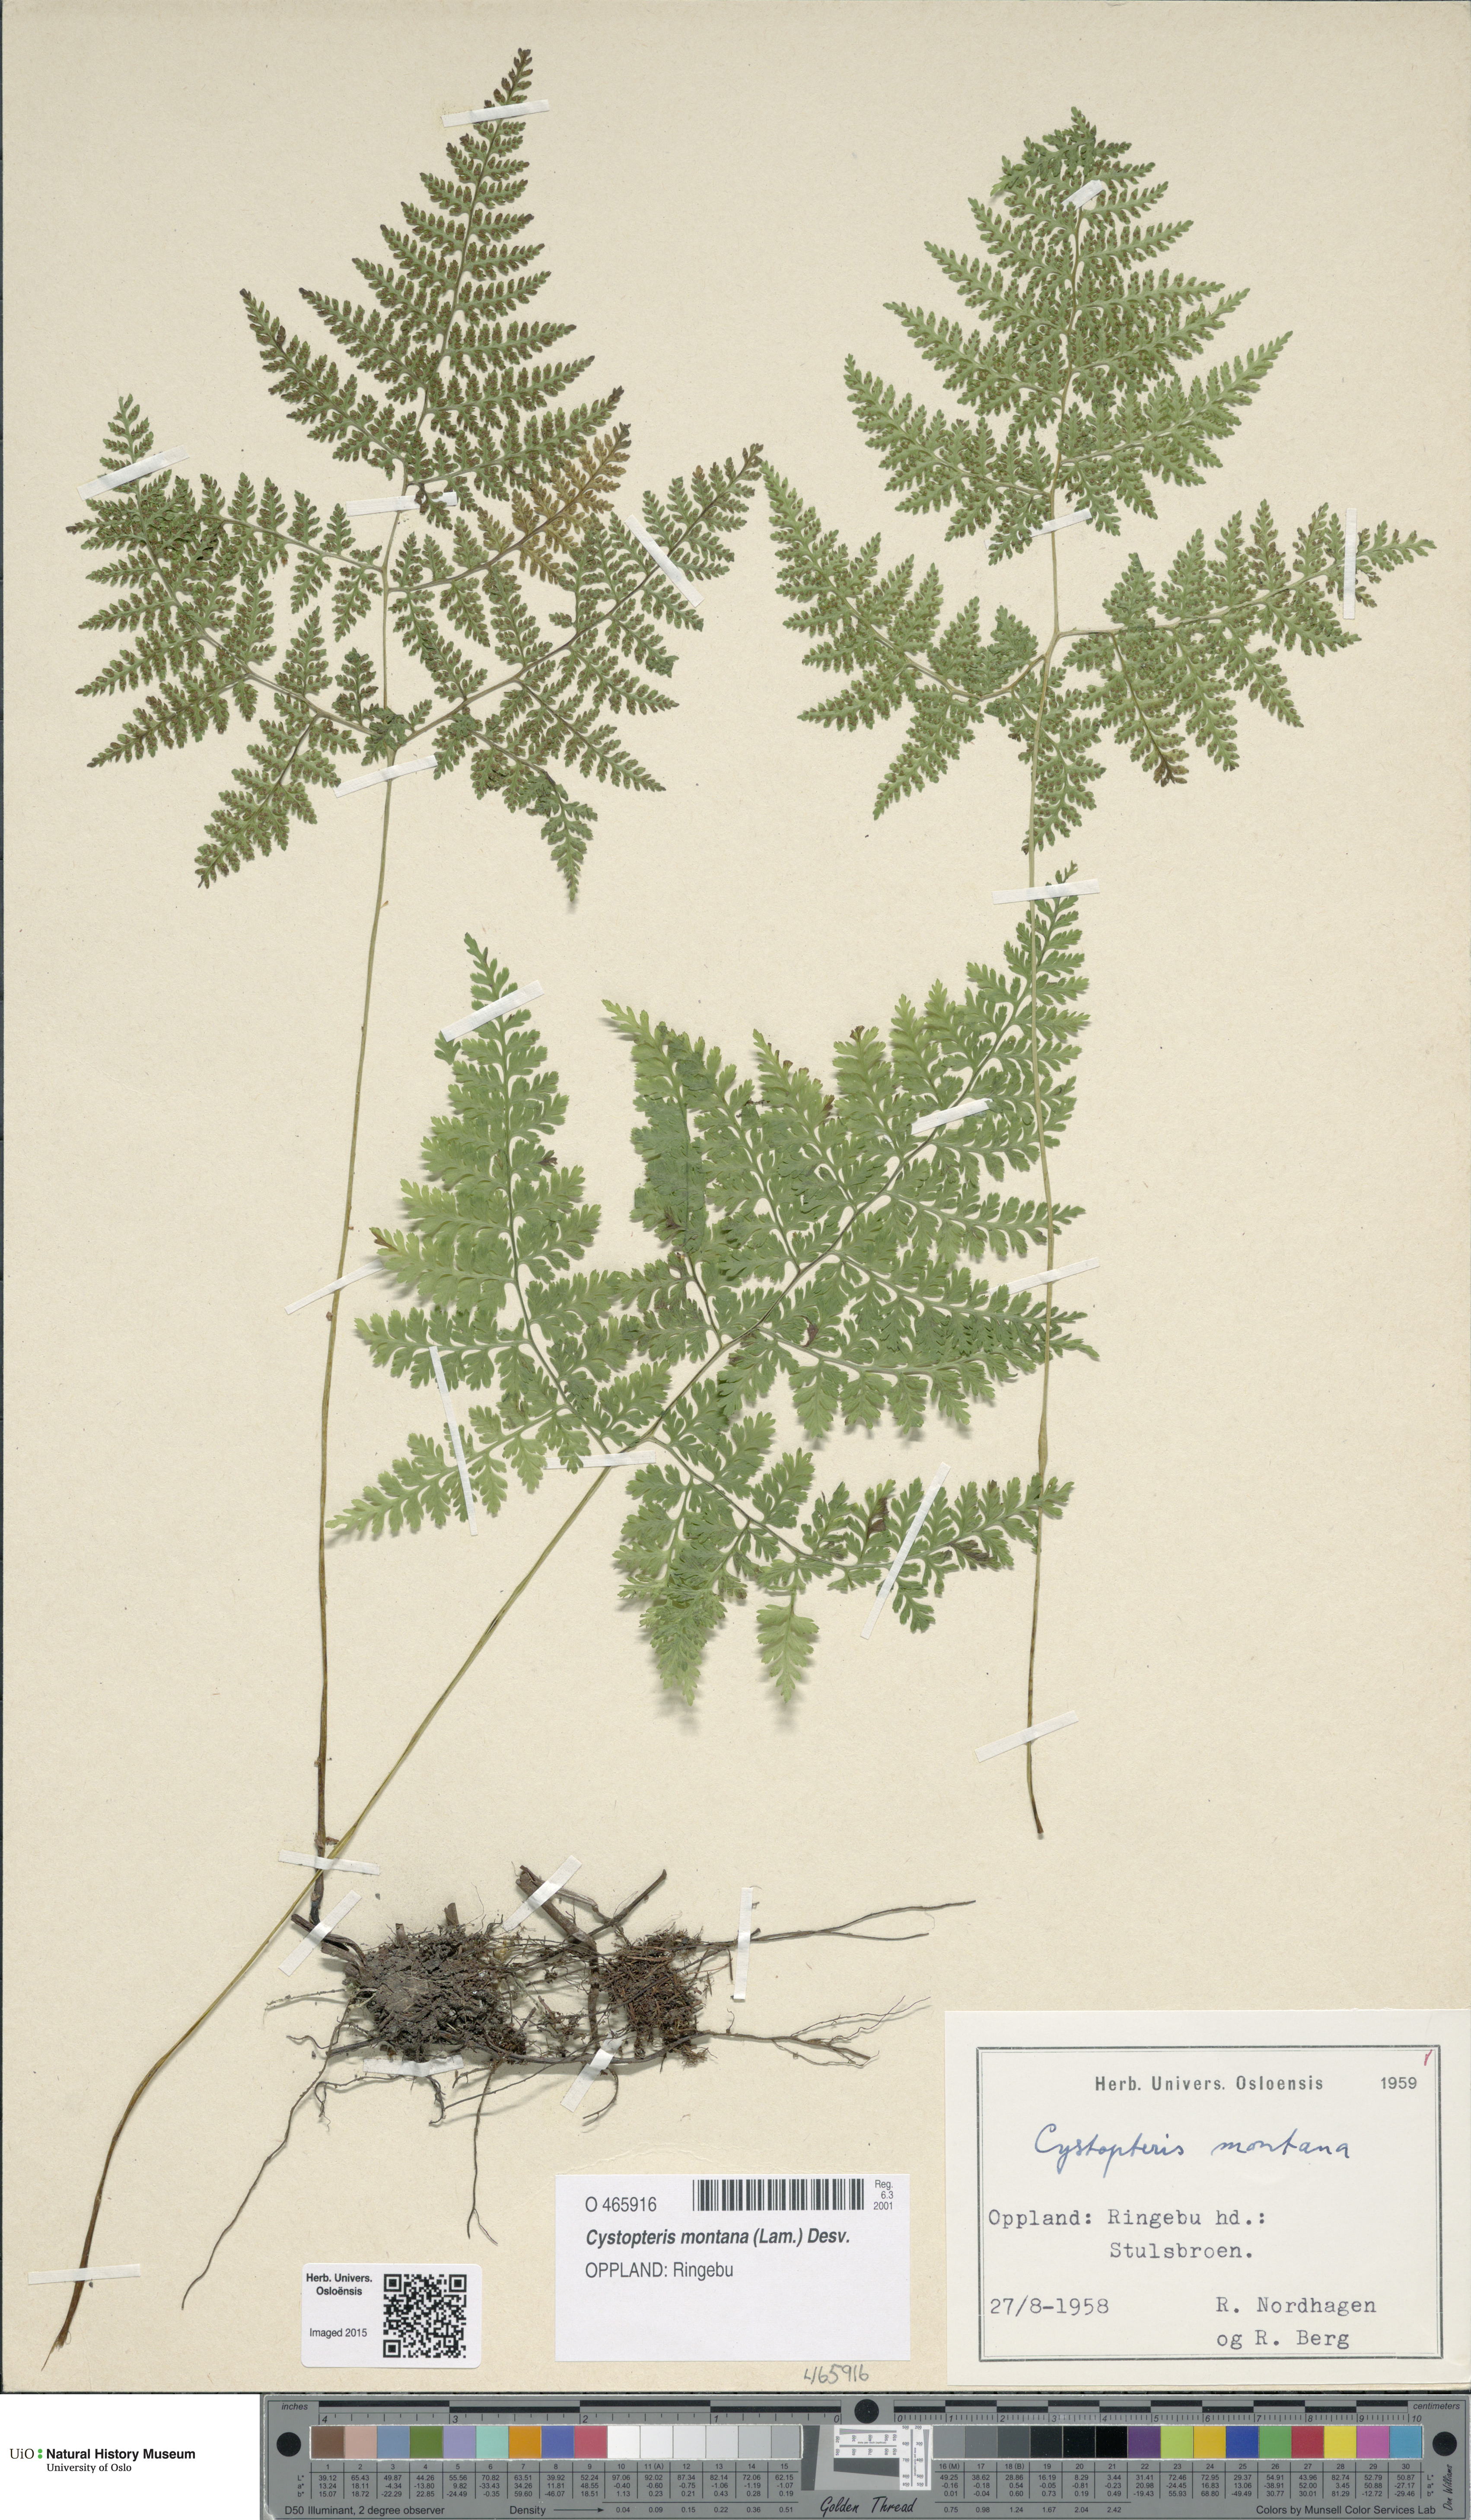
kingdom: Plantae
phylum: Tracheophyta
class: Polypodiopsida
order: Polypodiales
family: Cystopteridaceae
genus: Cystopteris
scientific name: Cystopteris montana
